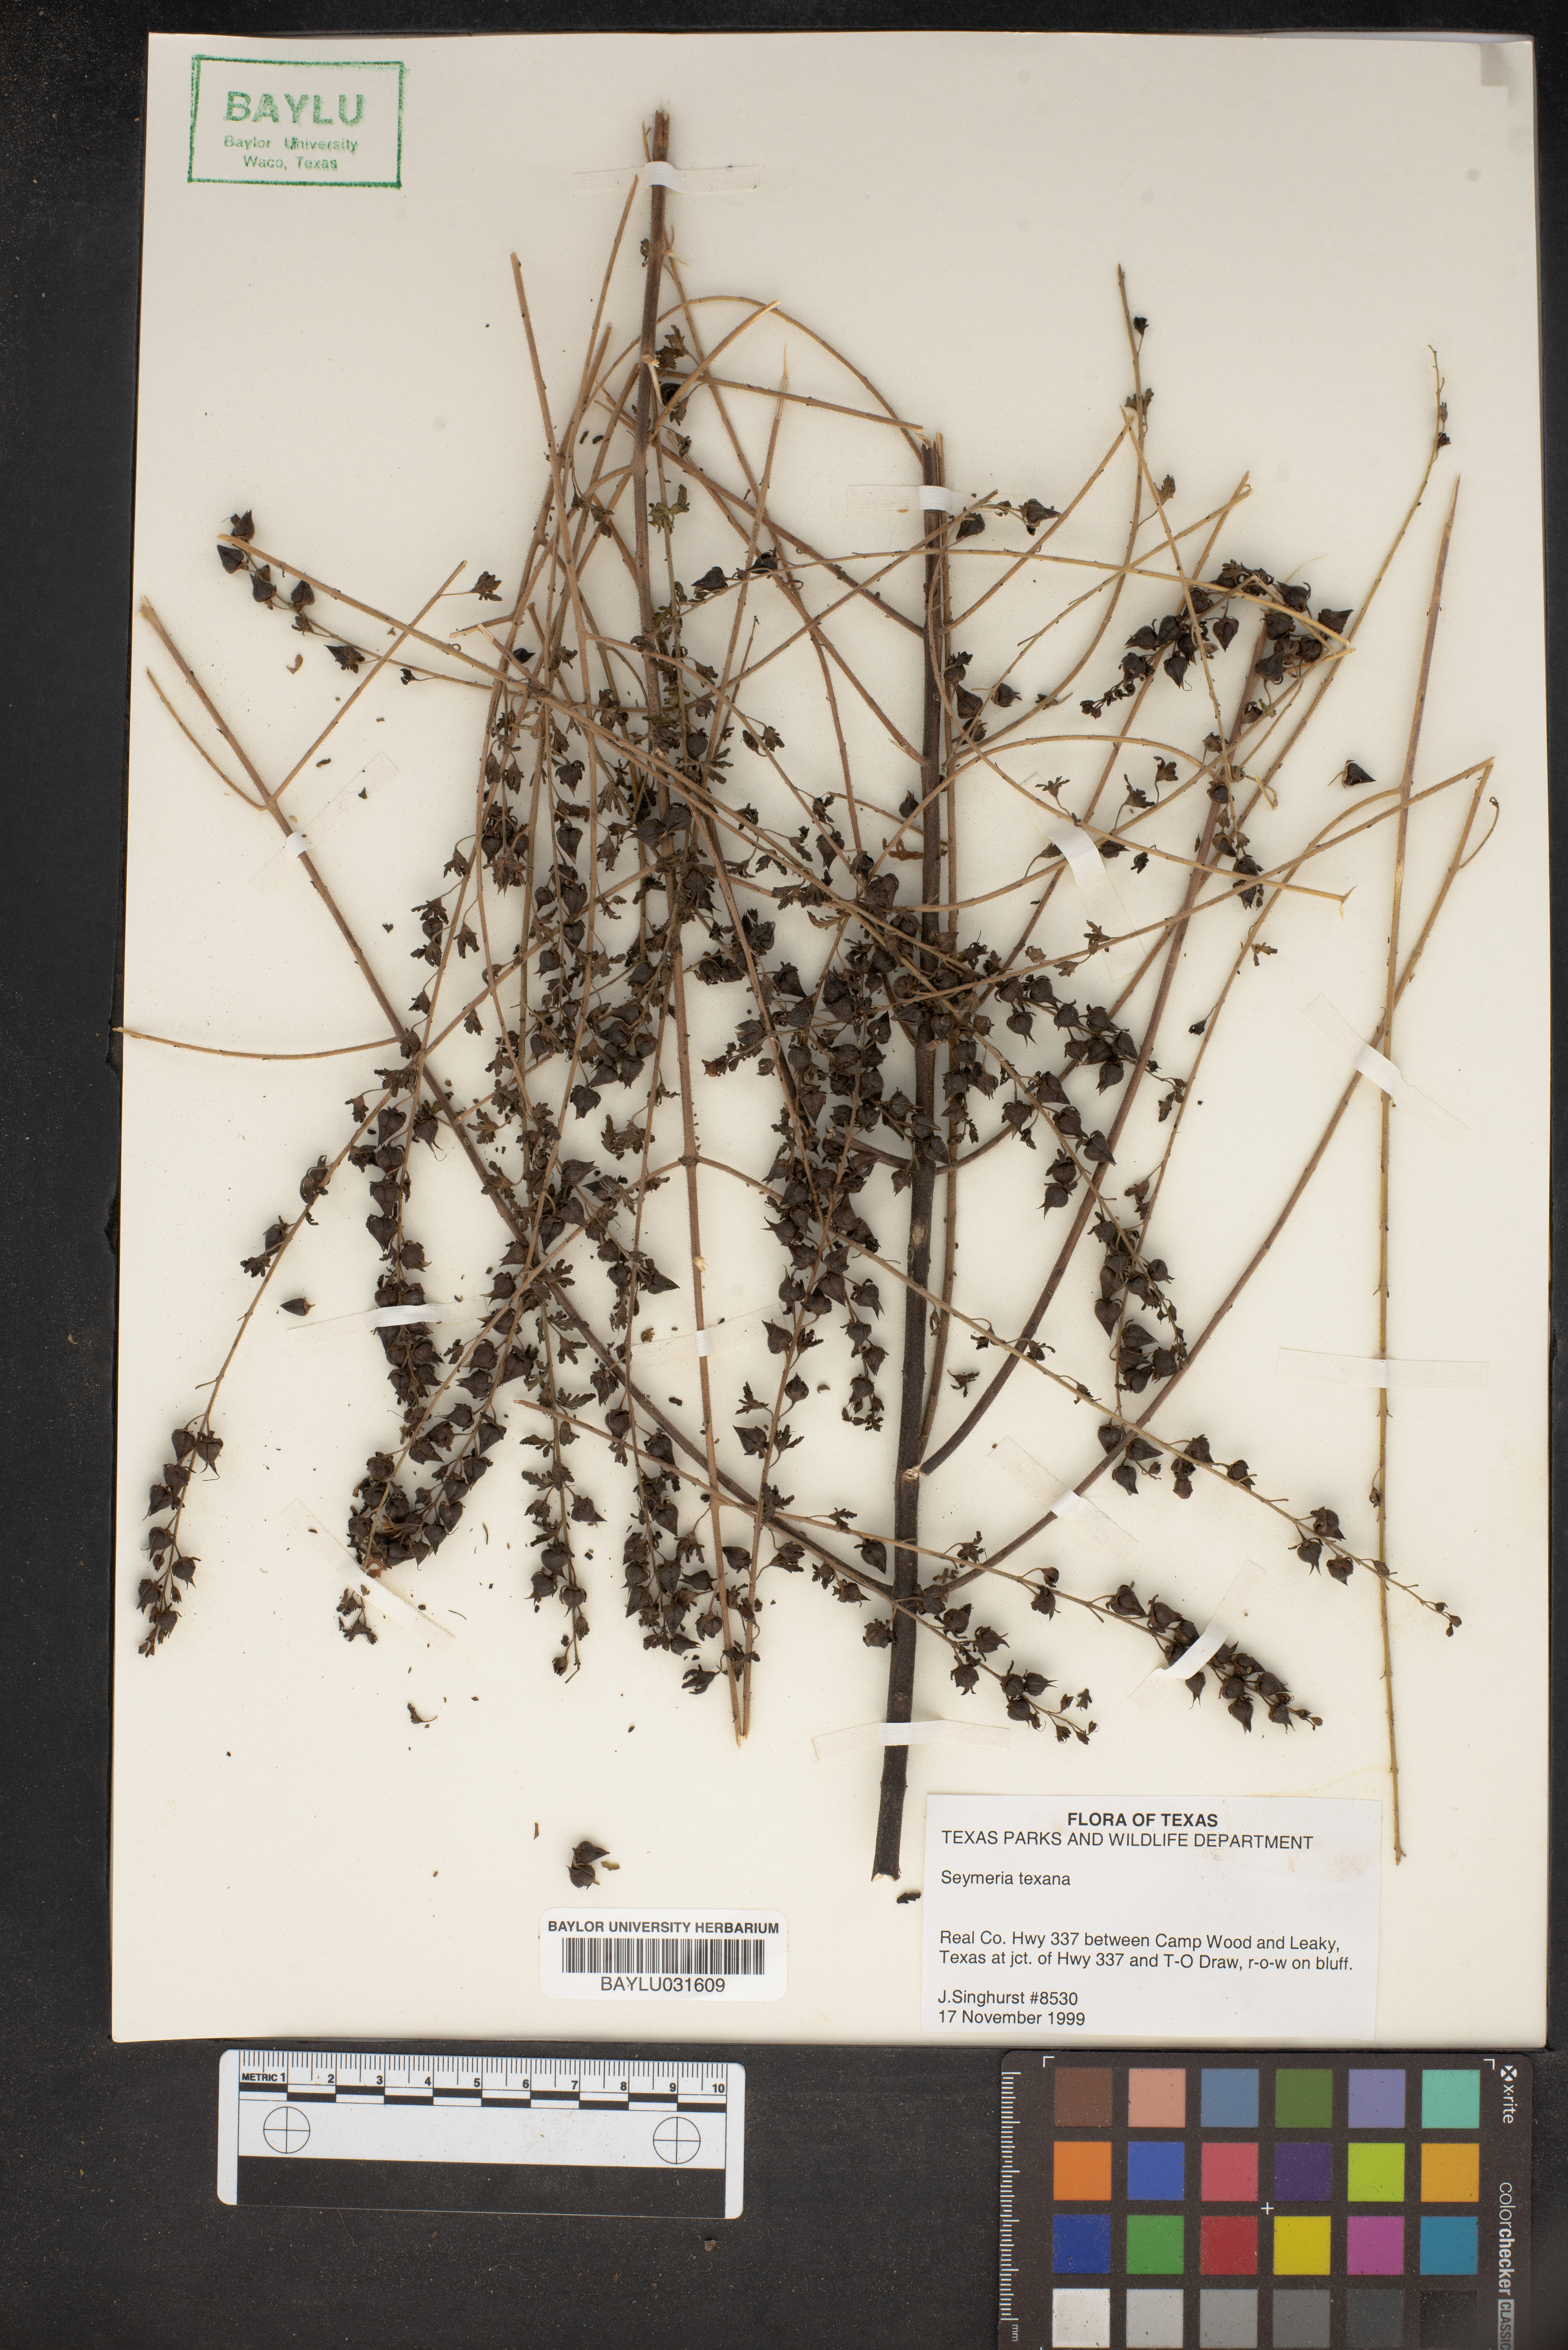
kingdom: Plantae
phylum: Tracheophyta
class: Magnoliopsida
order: Lamiales
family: Orobanchaceae
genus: Seymeria
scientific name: Seymeria bipinnatisecta
